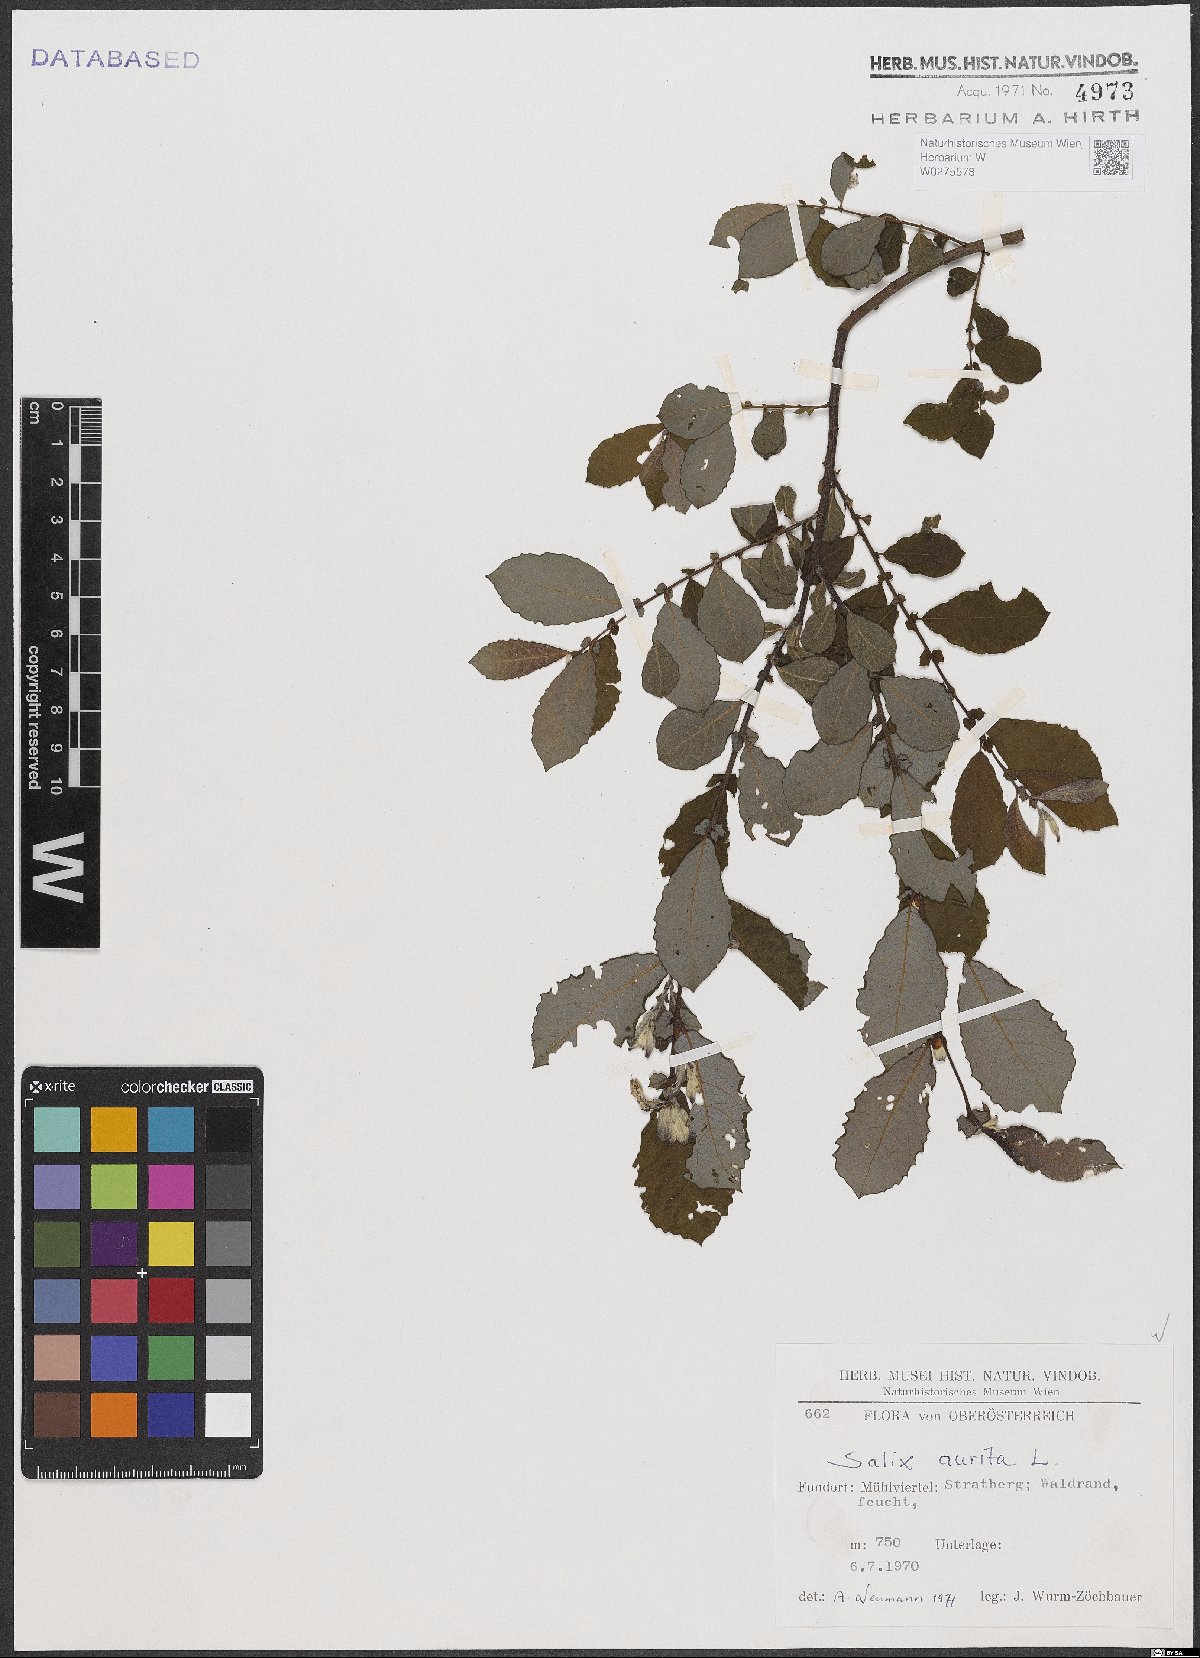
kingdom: Plantae
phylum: Tracheophyta
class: Magnoliopsida
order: Malpighiales
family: Salicaceae
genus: Salix
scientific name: Salix aurita
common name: Eared willow
